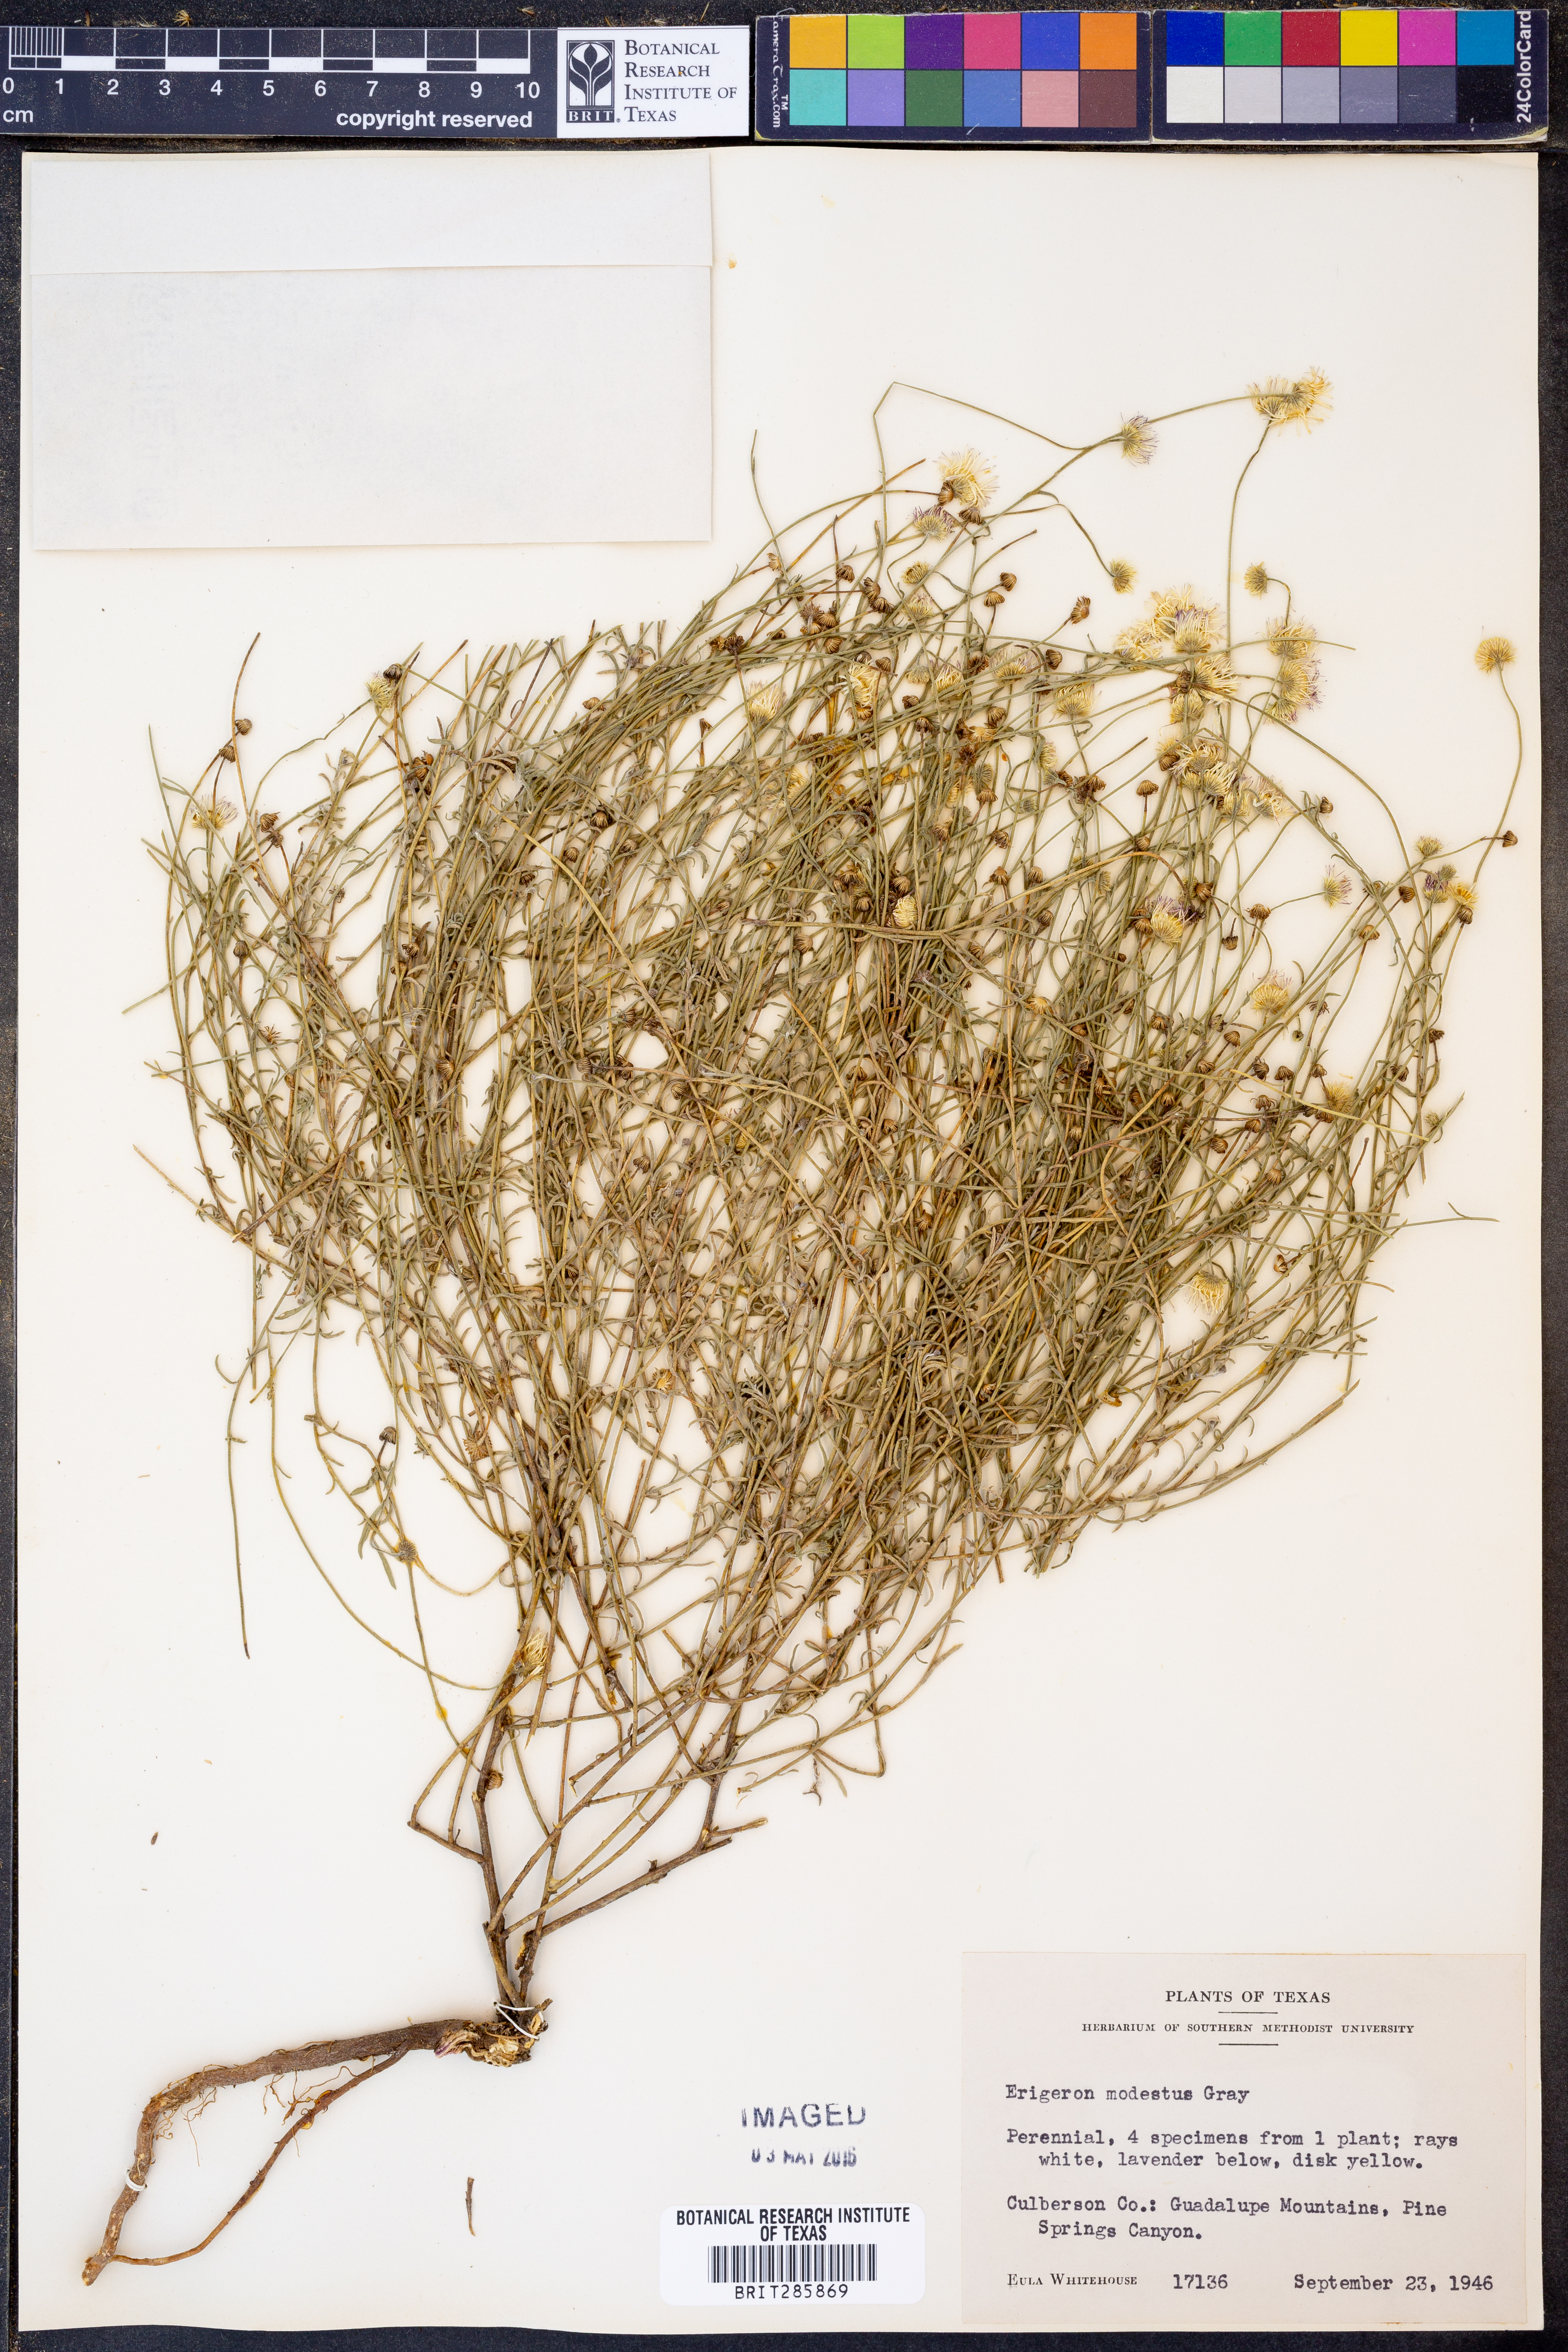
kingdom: Plantae
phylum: Tracheophyta
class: Magnoliopsida
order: Asterales
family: Asteraceae
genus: Erigeron
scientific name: Erigeron modestus
